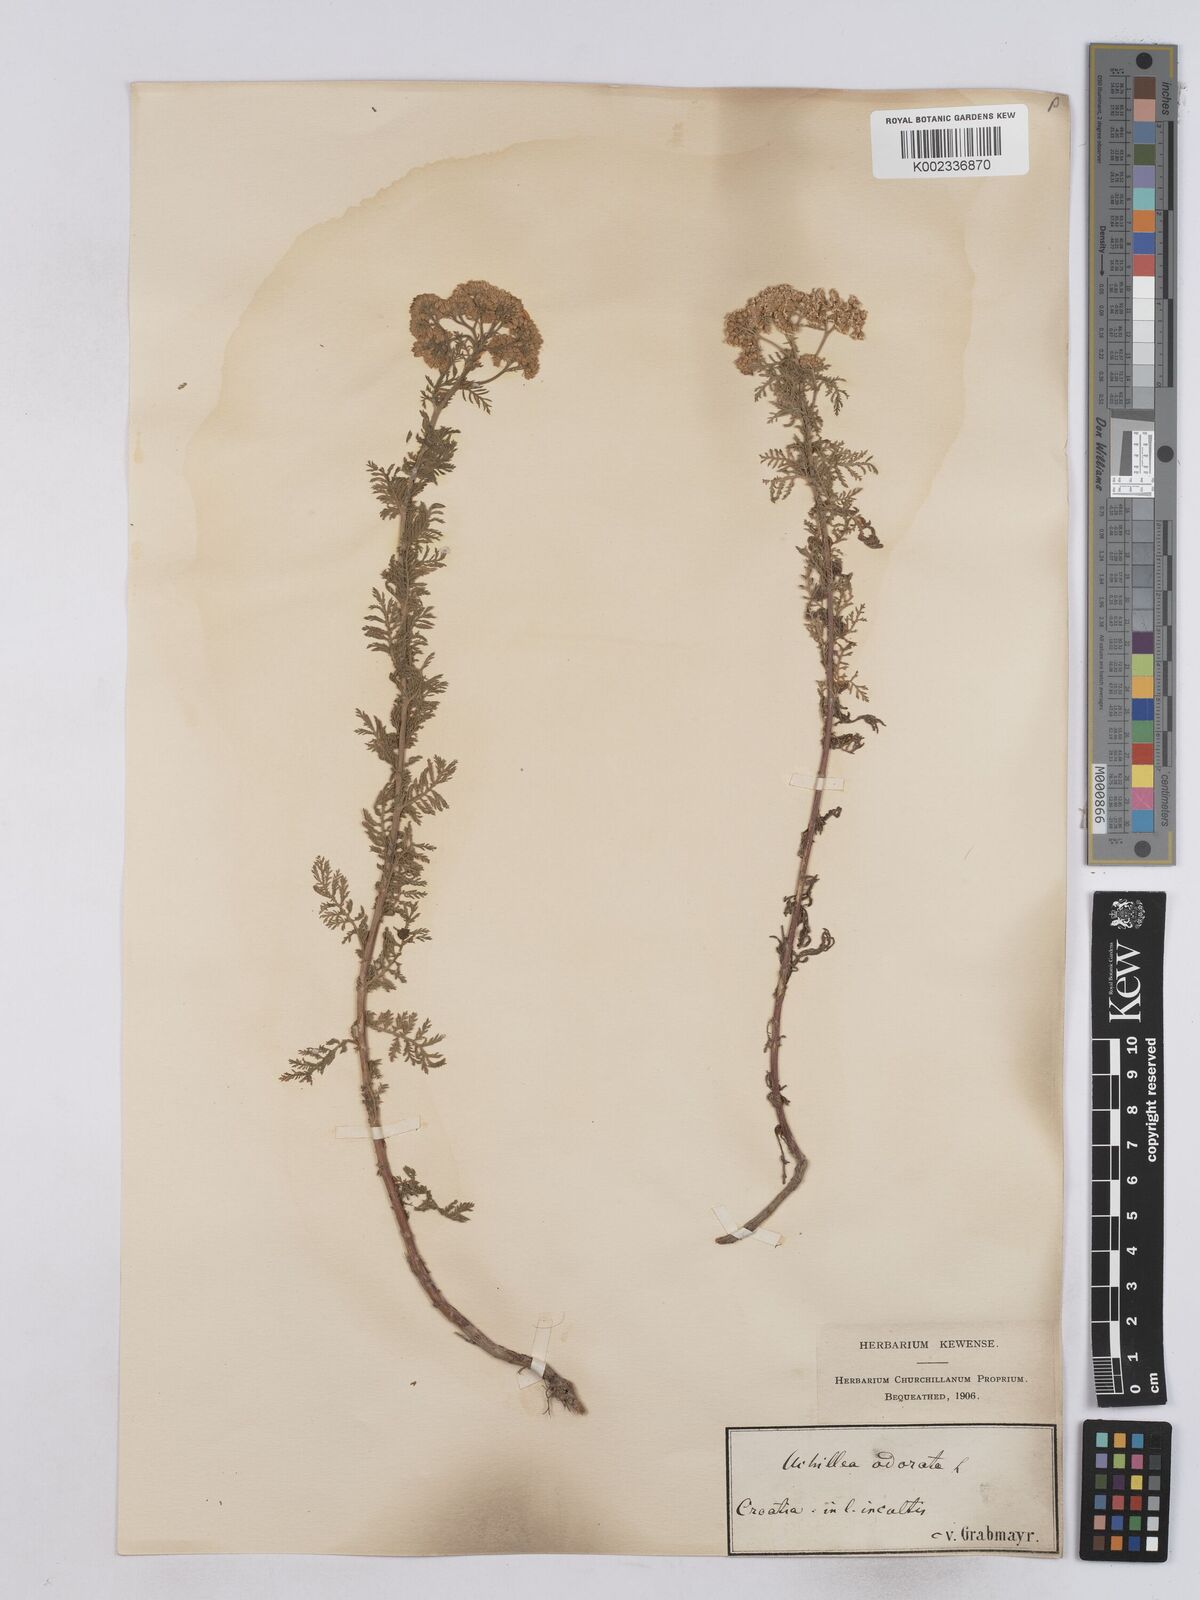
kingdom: Plantae
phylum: Tracheophyta
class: Magnoliopsida
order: Asterales
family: Asteraceae
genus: Achillea
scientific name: Achillea odorata
